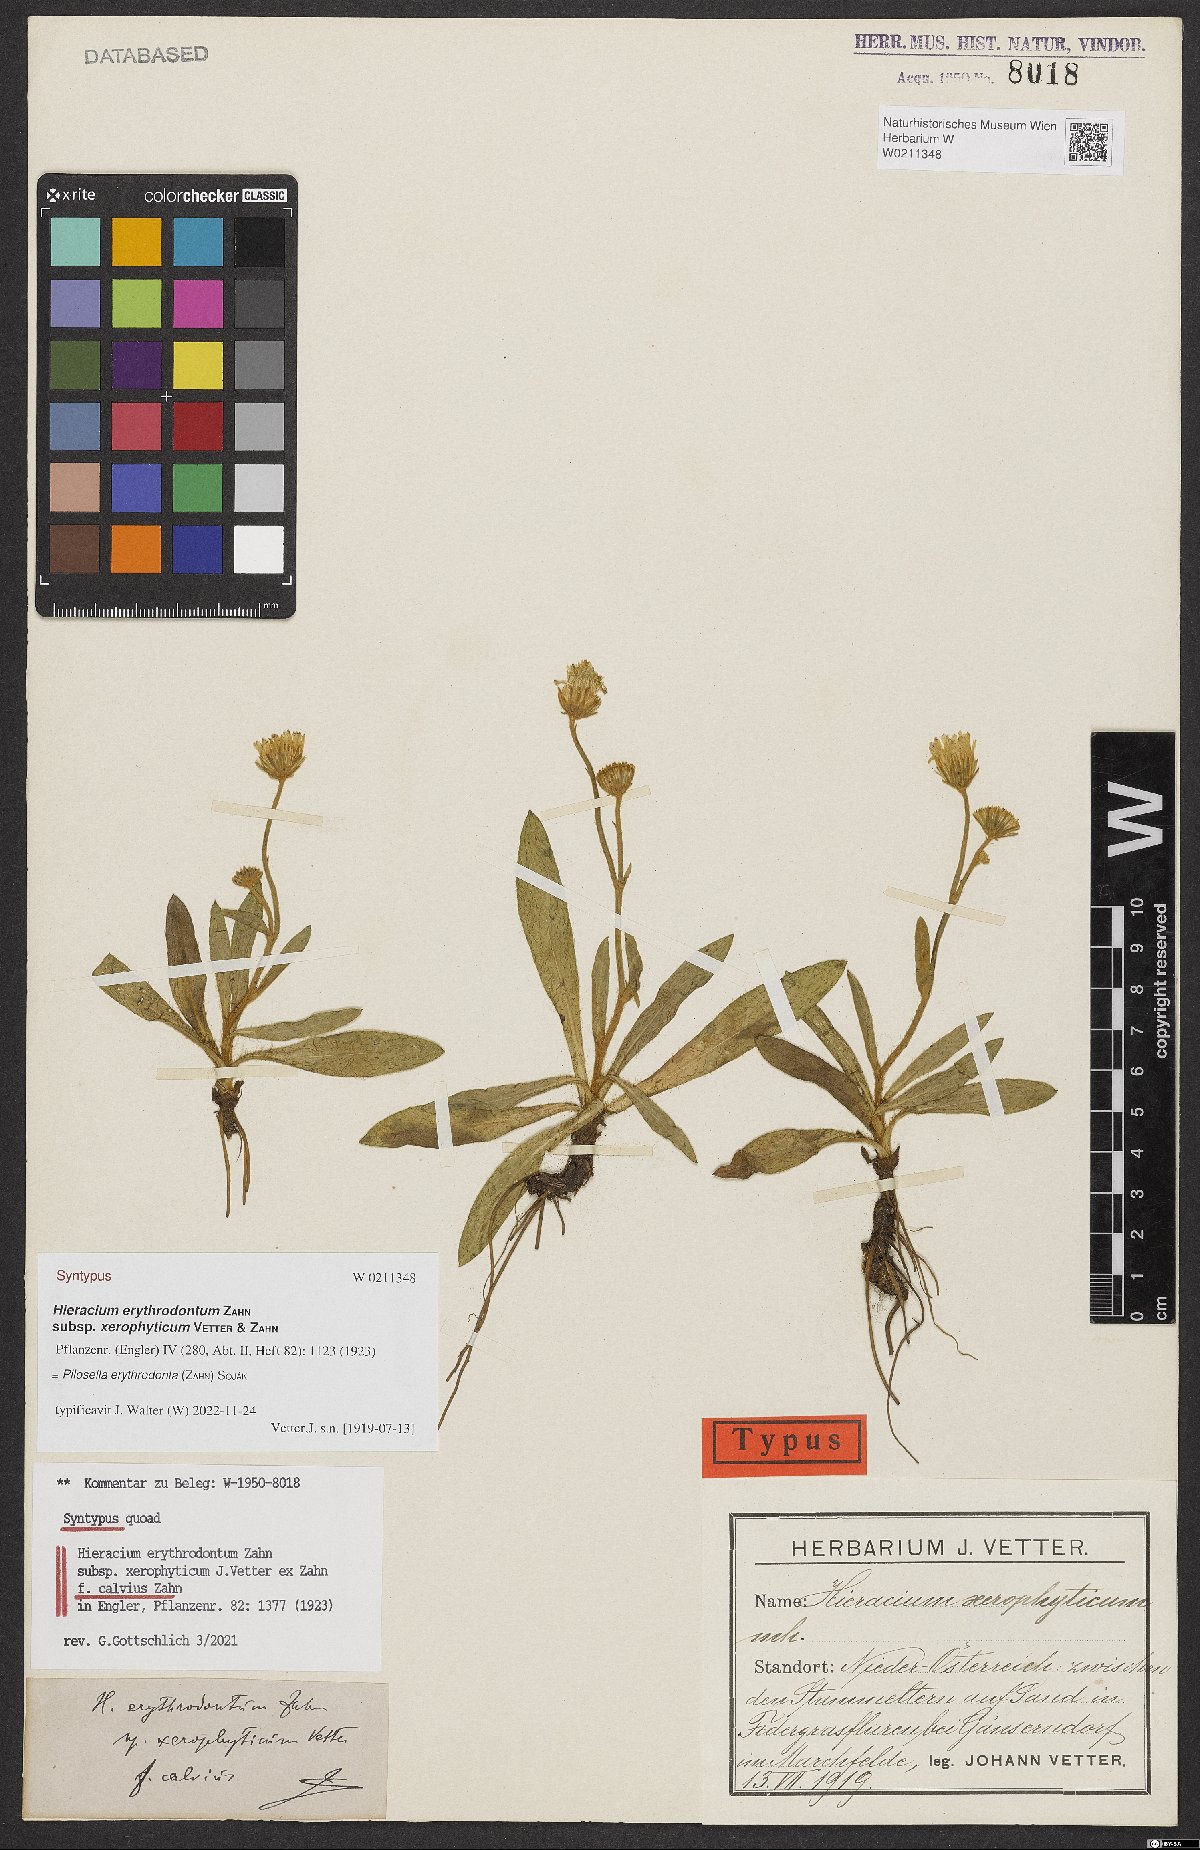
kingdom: Plantae
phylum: Tracheophyta
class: Magnoliopsida
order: Asterales
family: Asteraceae
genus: Pilosella
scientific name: Pilosella erythrodonta
